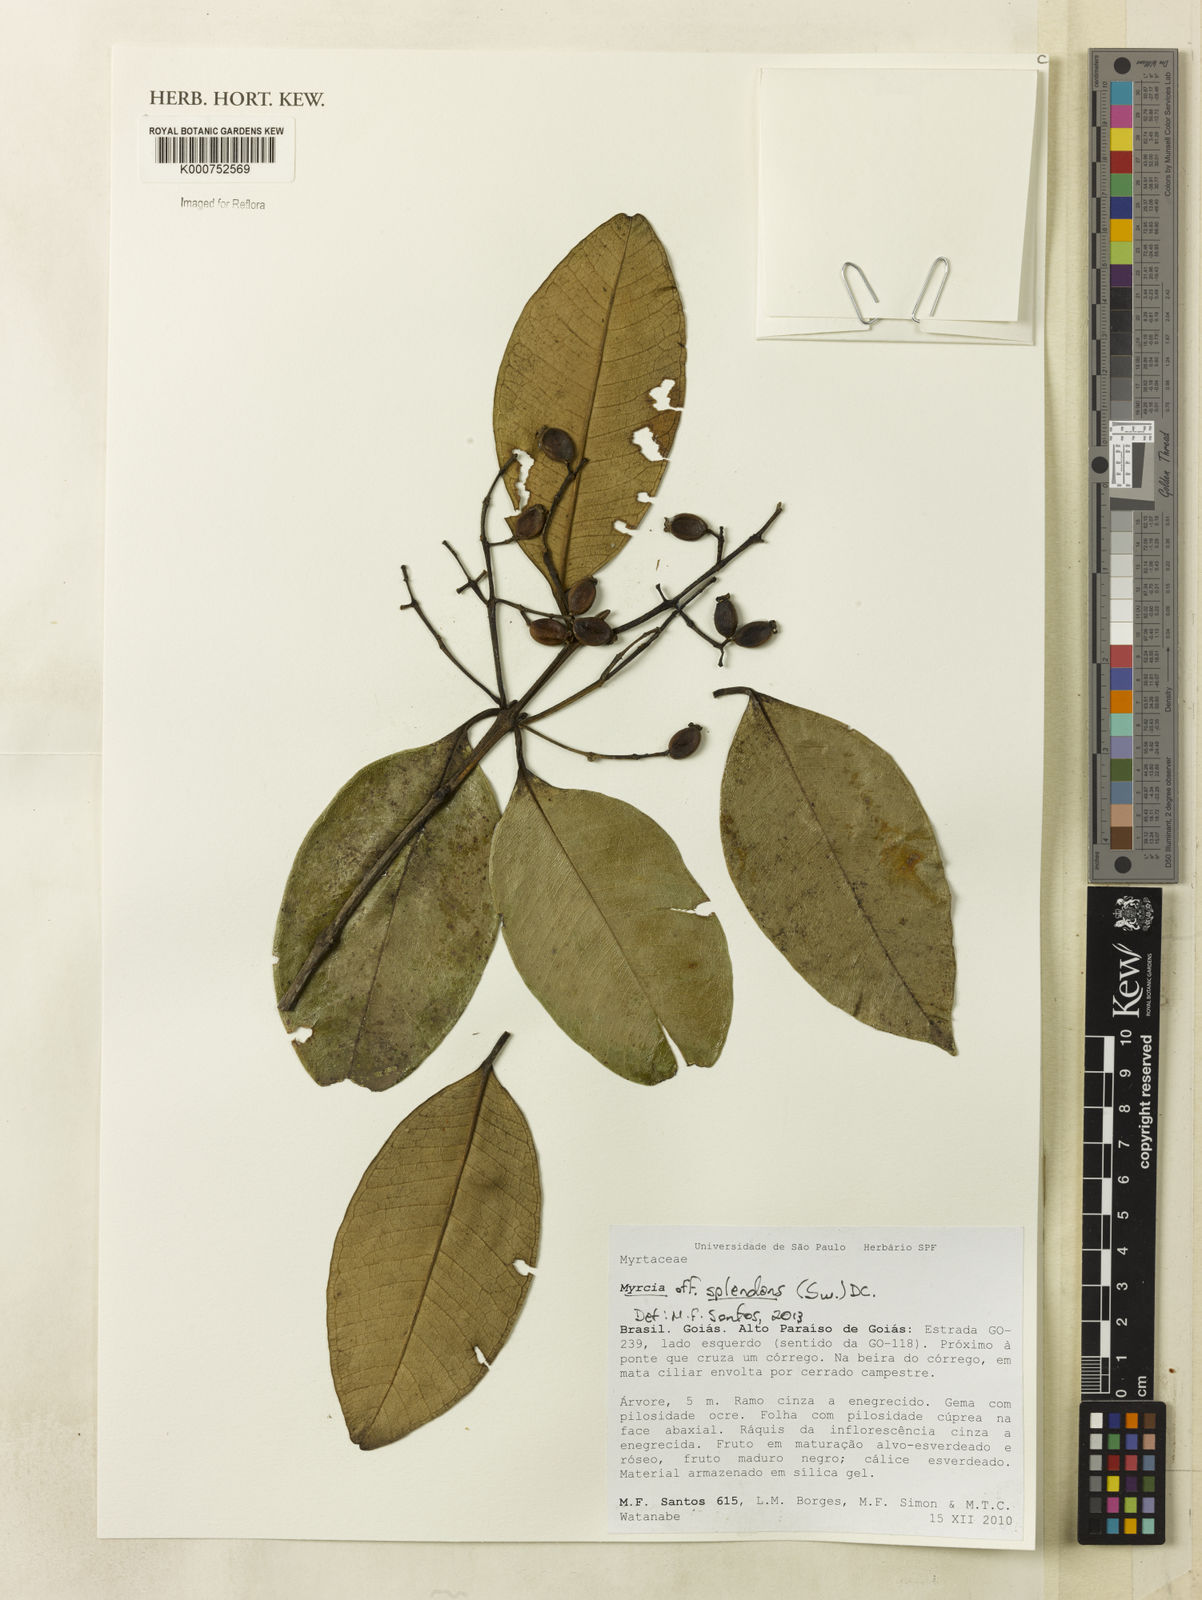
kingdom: Plantae
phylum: Tracheophyta
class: Magnoliopsida
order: Myrtales
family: Myrtaceae
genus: Myrcia
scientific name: Myrcia splendens
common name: Surinam cherry
